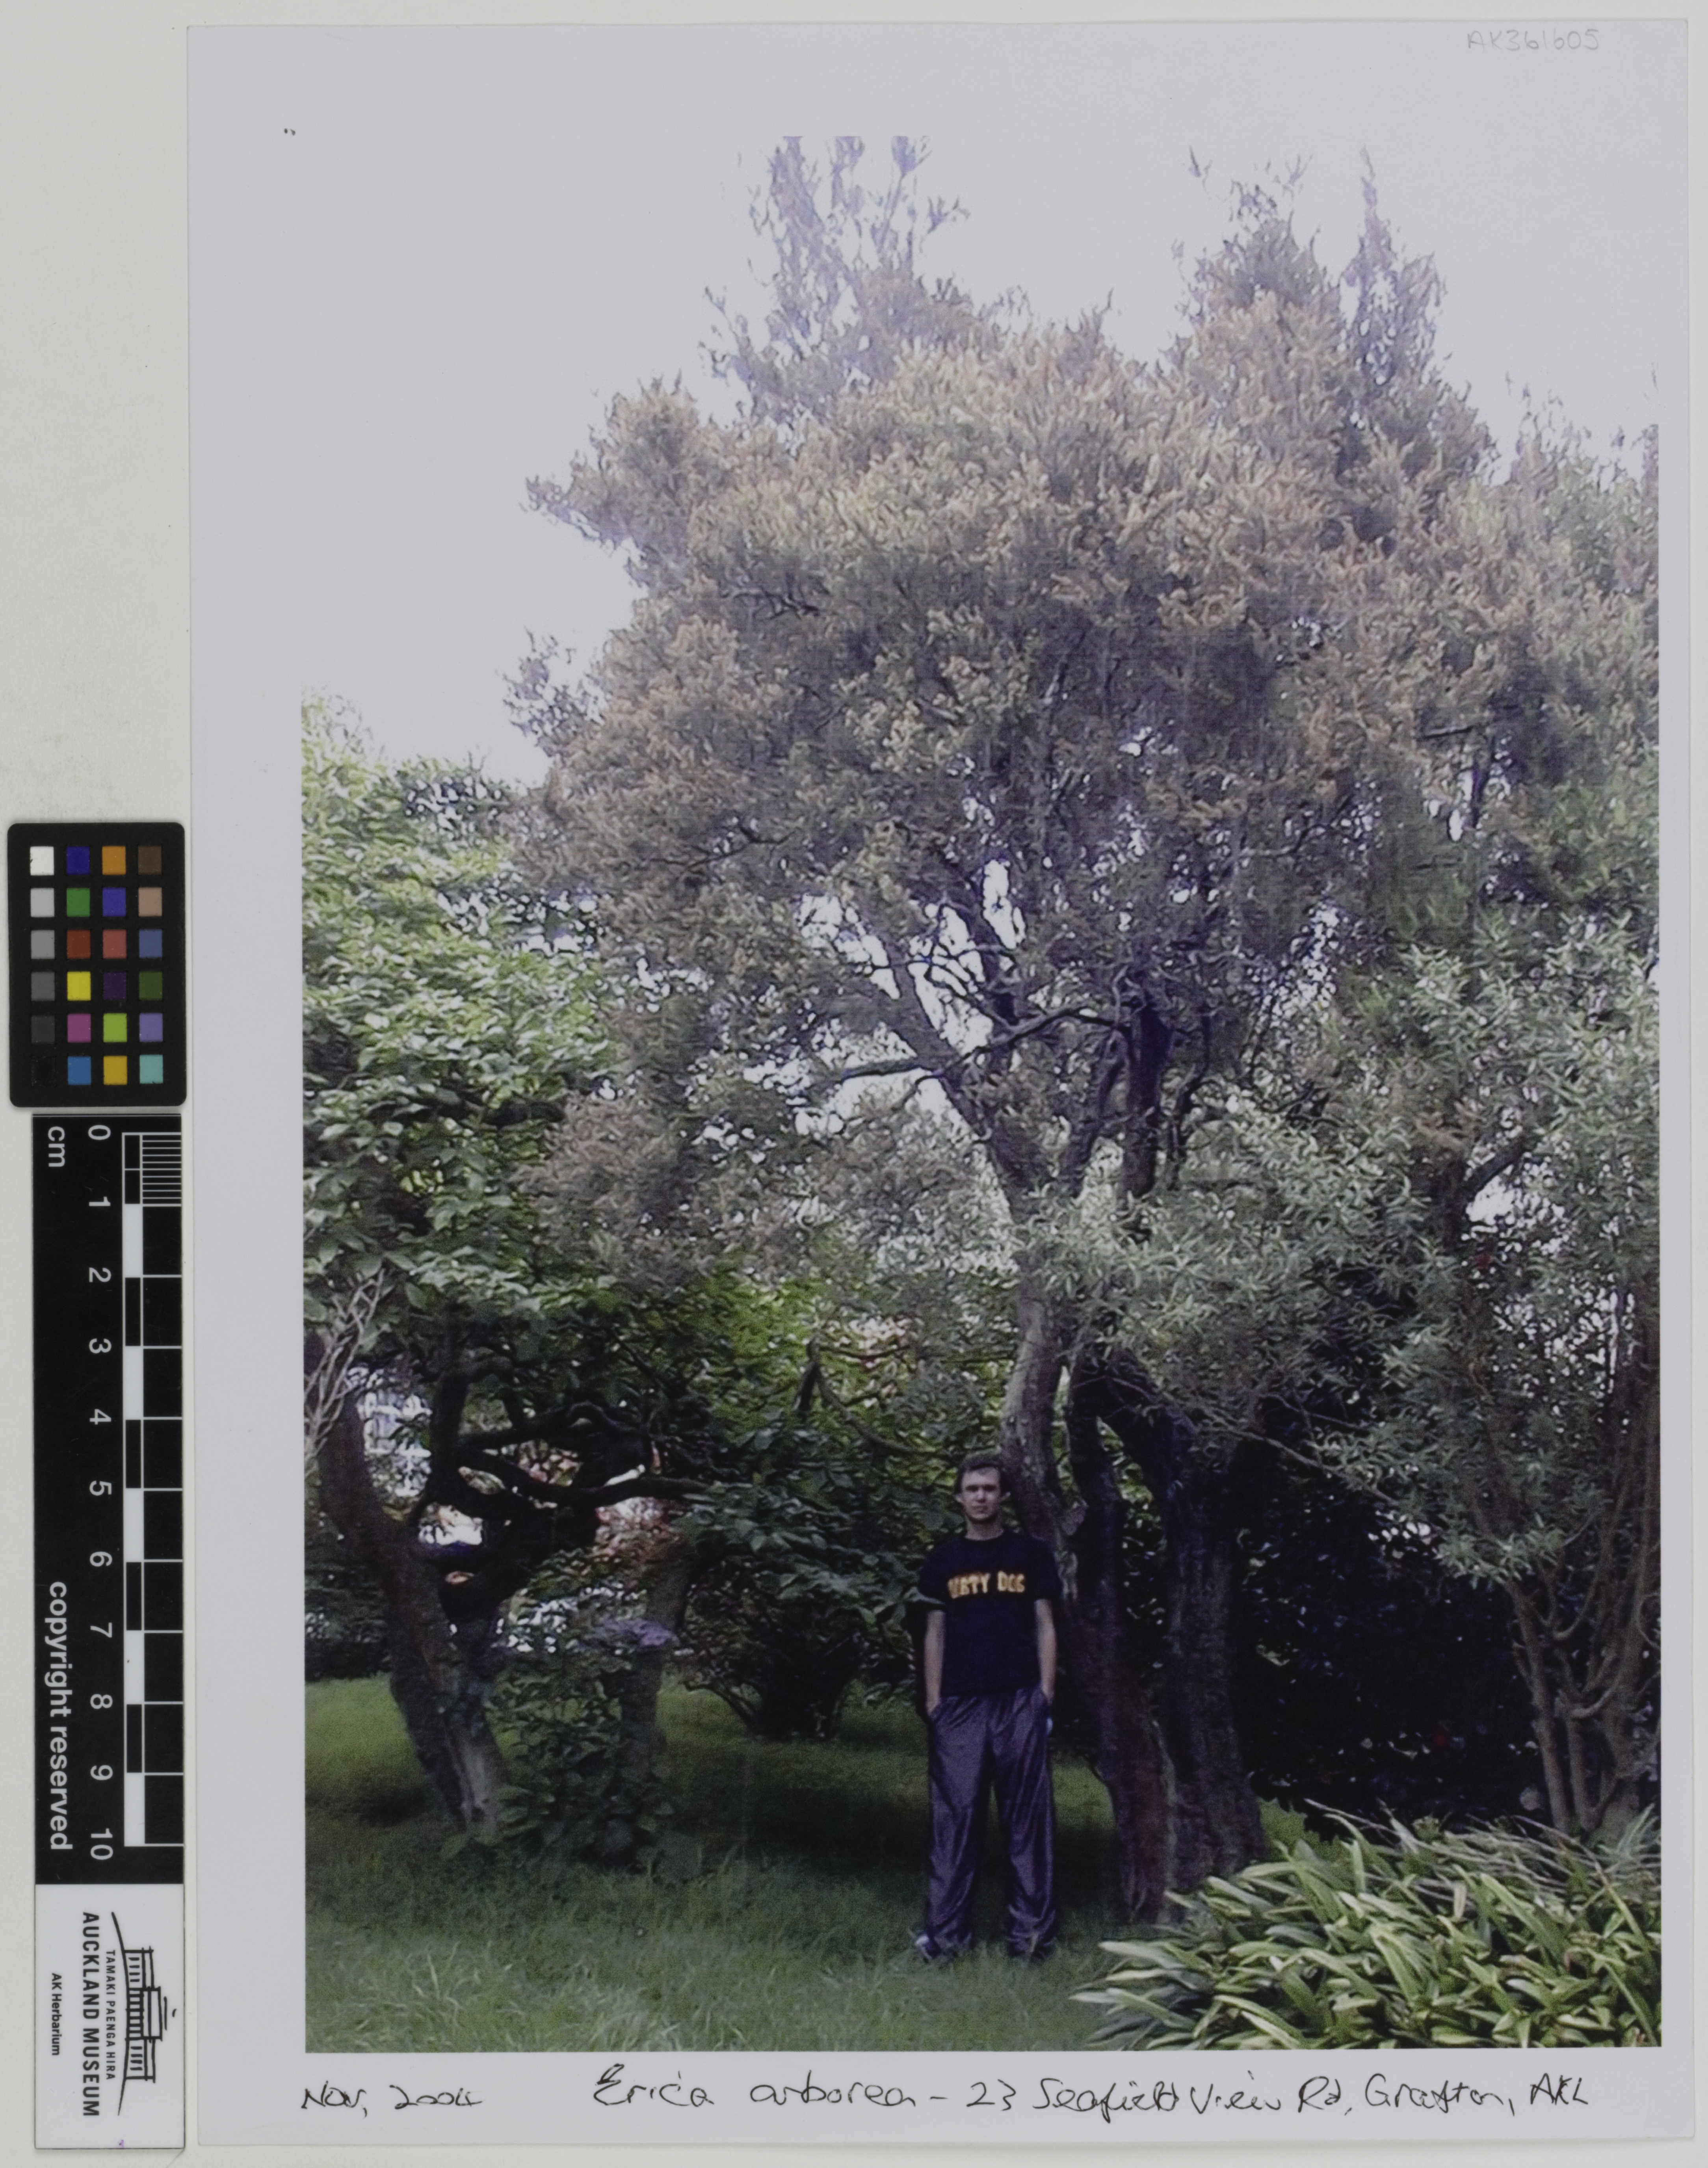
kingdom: Plantae
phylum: Tracheophyta
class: Magnoliopsida
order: Ericales
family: Ericaceae
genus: Erica
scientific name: Erica arborea
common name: Tree heath
